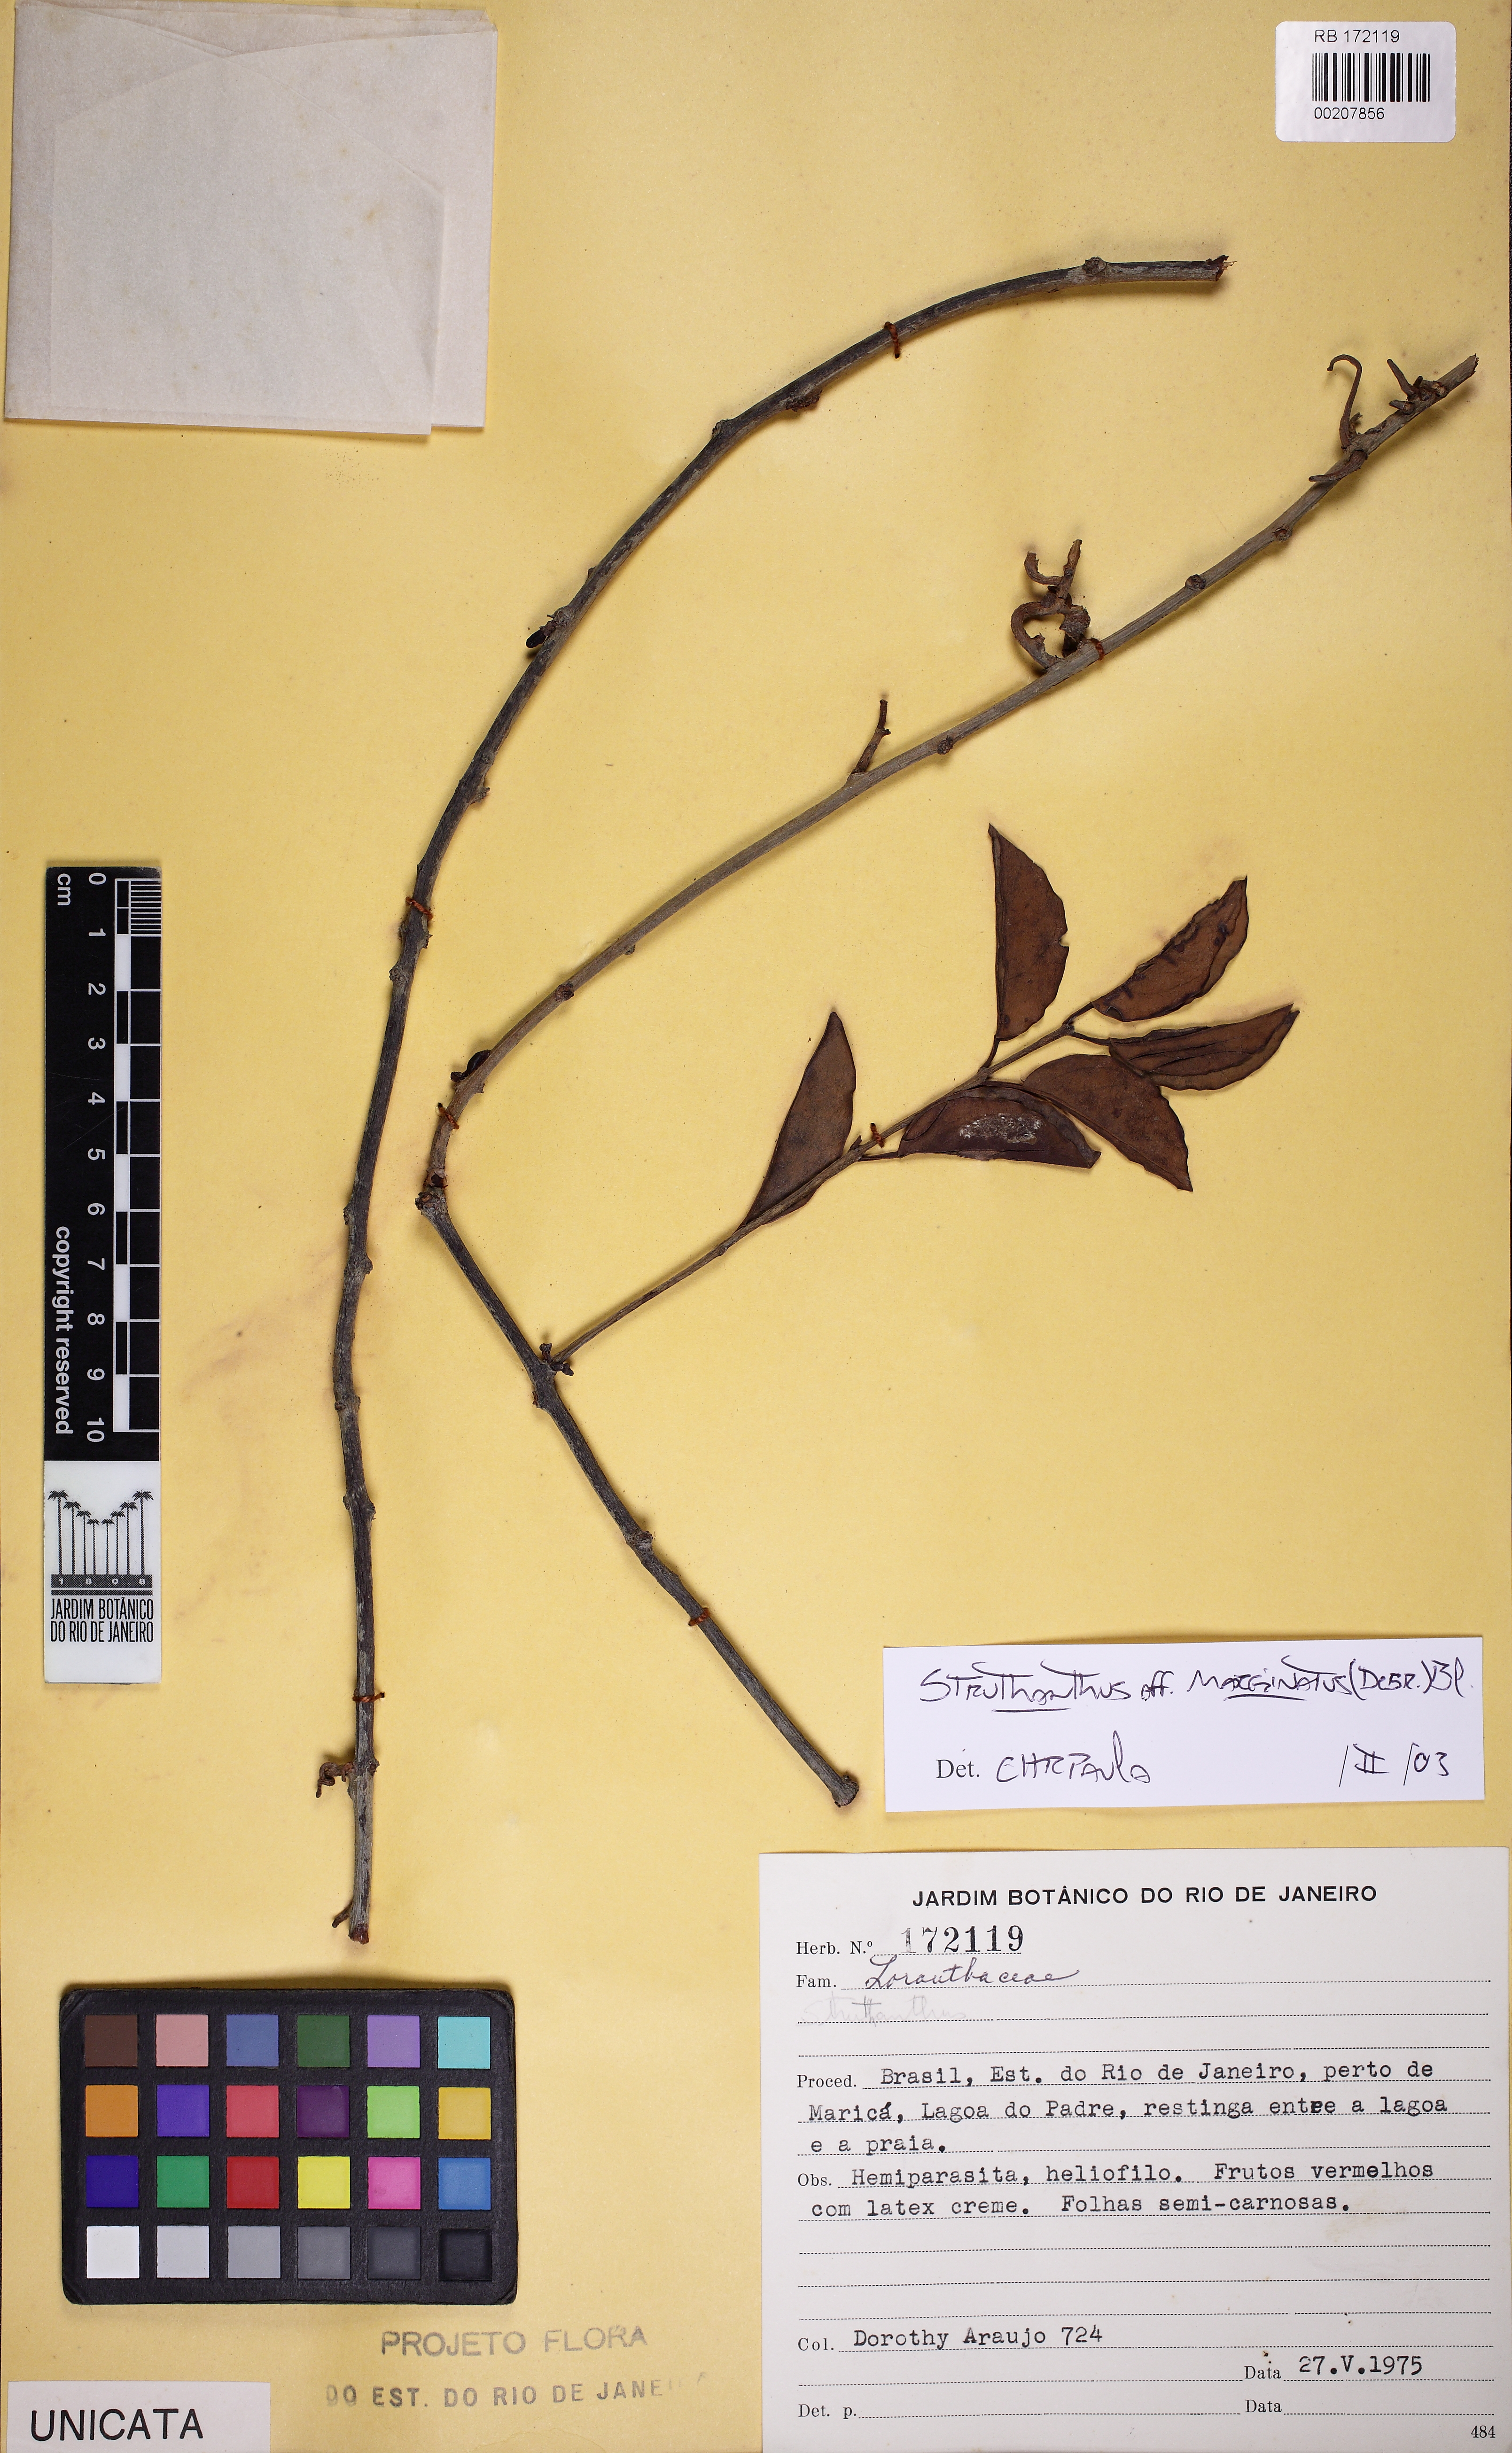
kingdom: Plantae
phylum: Tracheophyta
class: Magnoliopsida
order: Santalales
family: Loranthaceae
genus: Struthanthus
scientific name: Struthanthus marginatus
